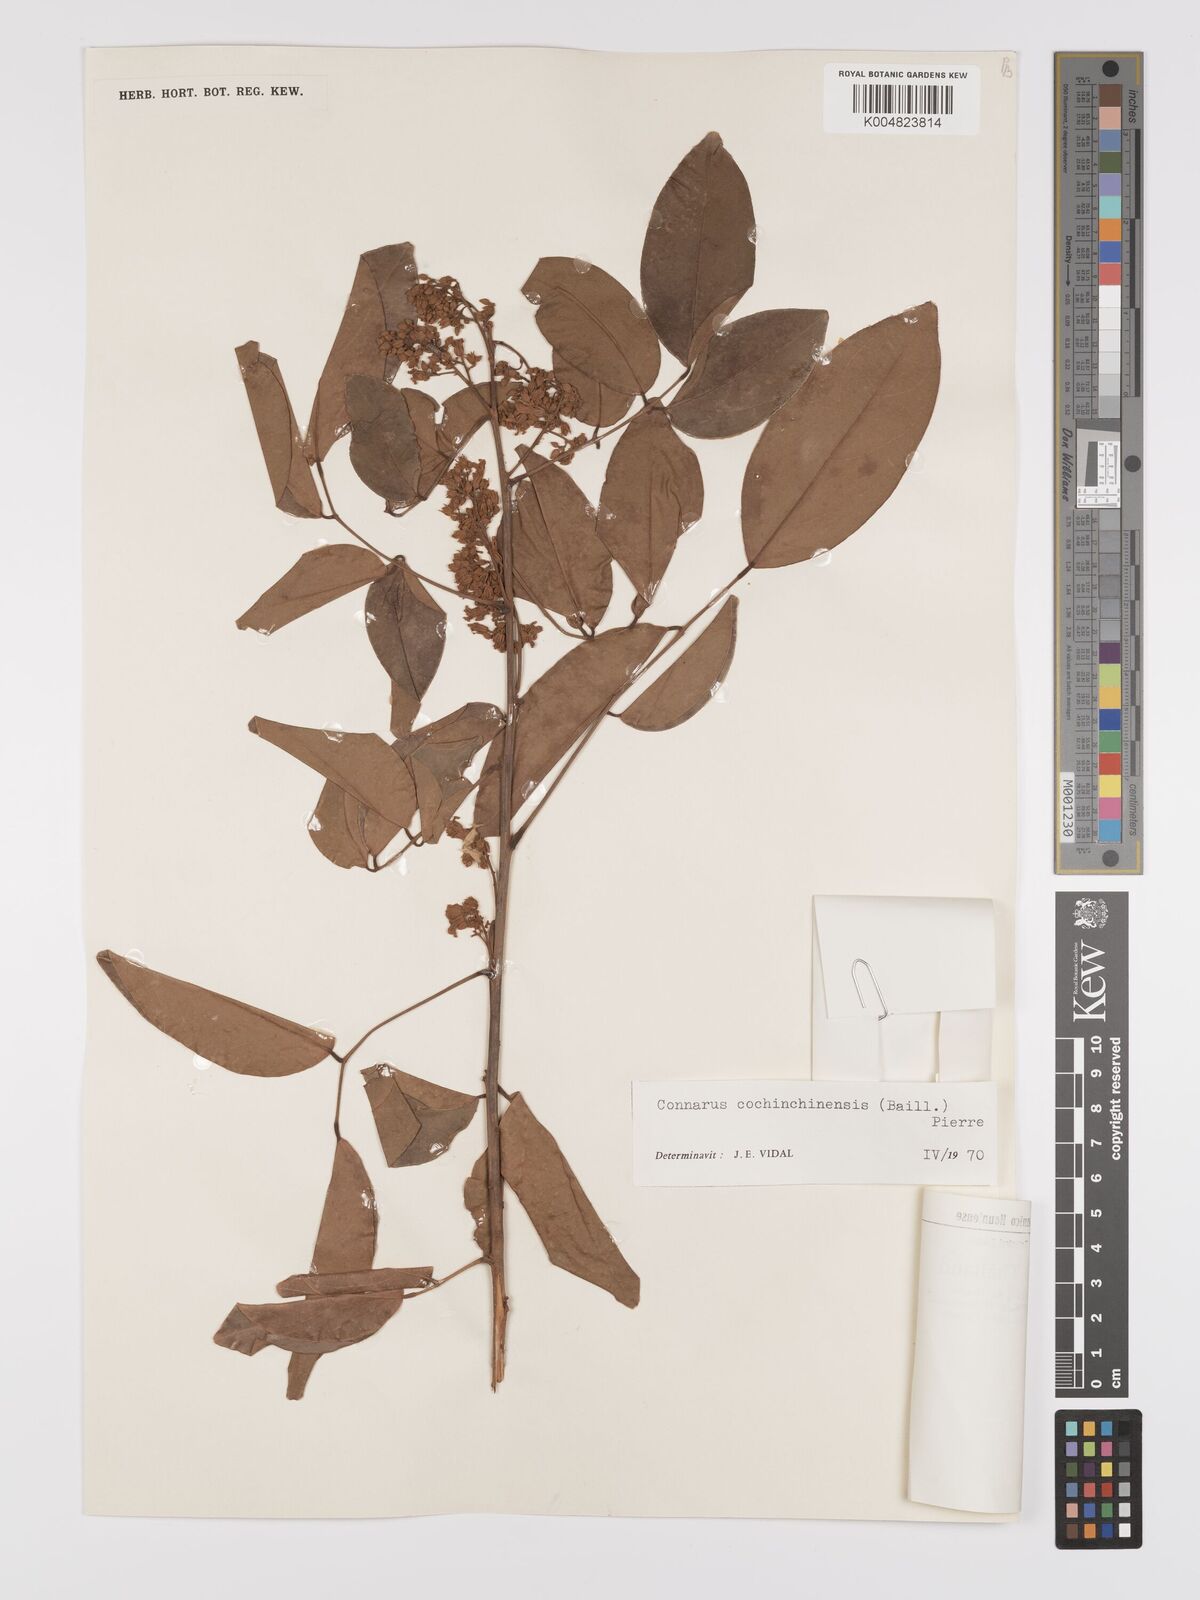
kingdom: Plantae
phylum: Tracheophyta
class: Magnoliopsida
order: Oxalidales
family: Connaraceae
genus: Connarus
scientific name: Connarus cochinchinensis
